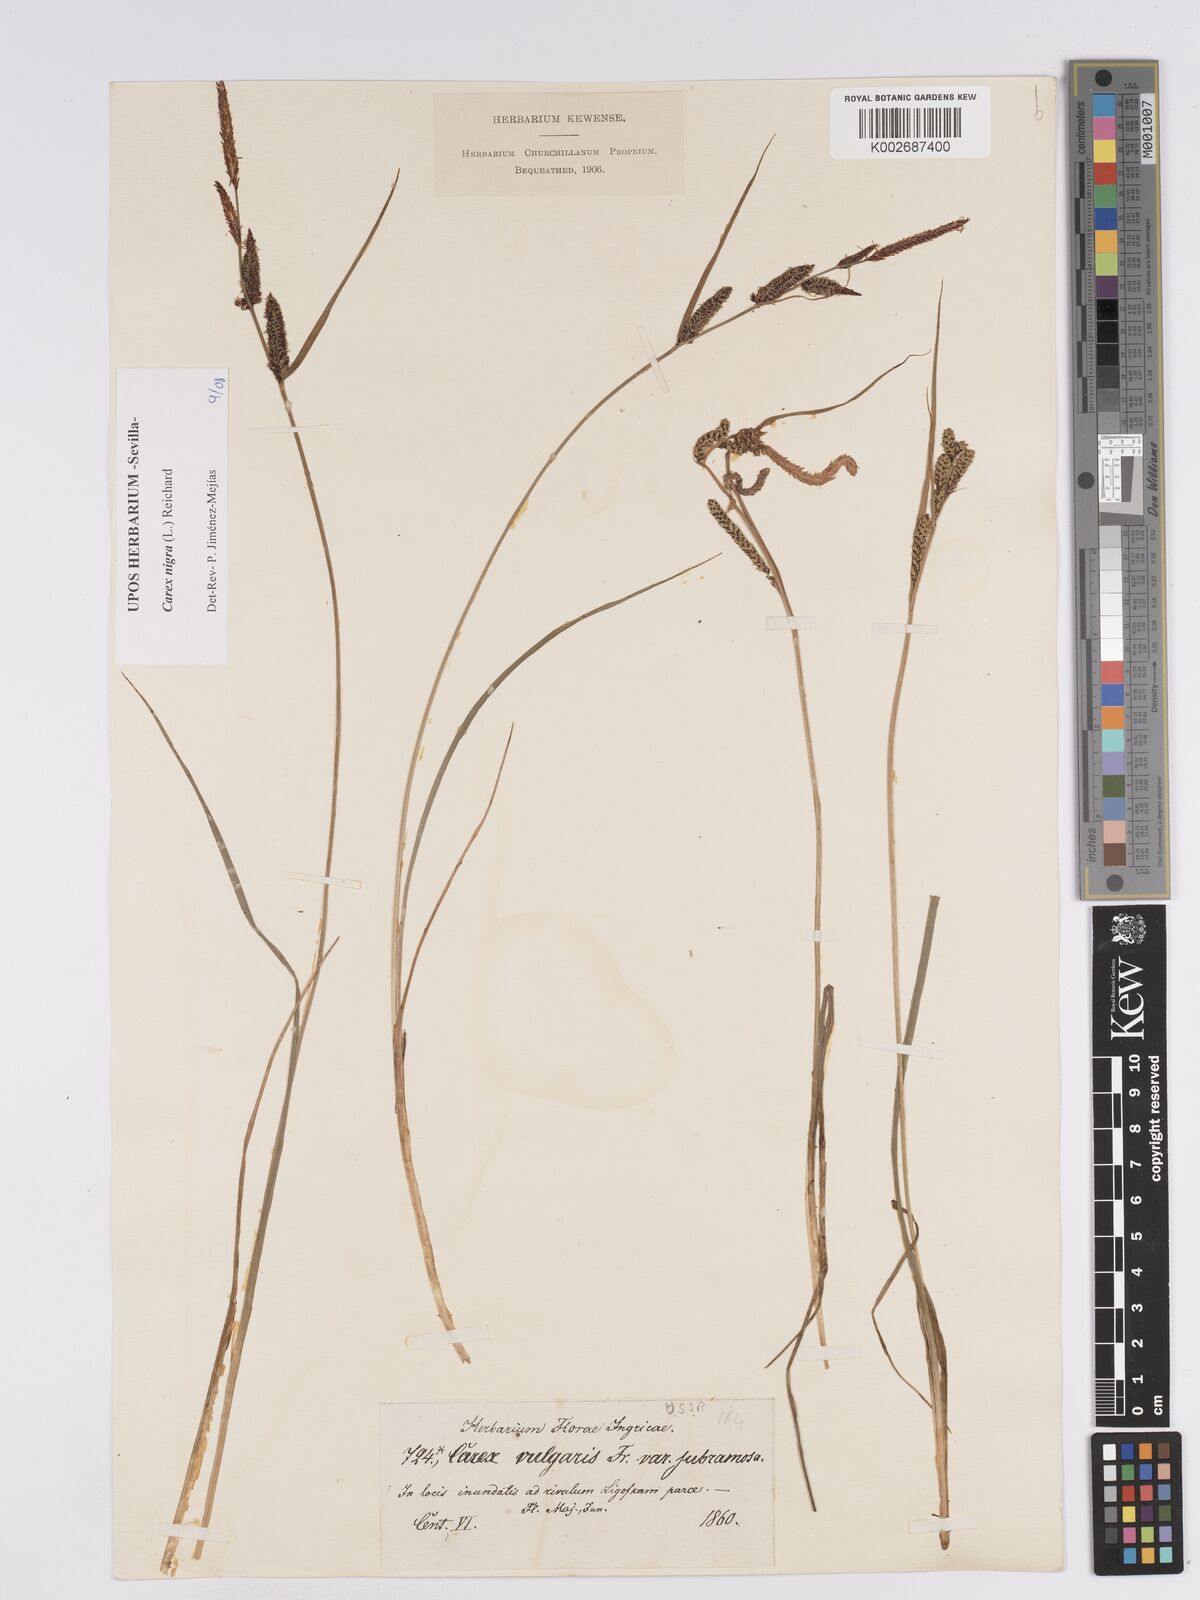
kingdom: Plantae
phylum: Tracheophyta
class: Liliopsida
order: Poales
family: Cyperaceae
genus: Carex
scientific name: Carex nigra
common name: Common sedge
